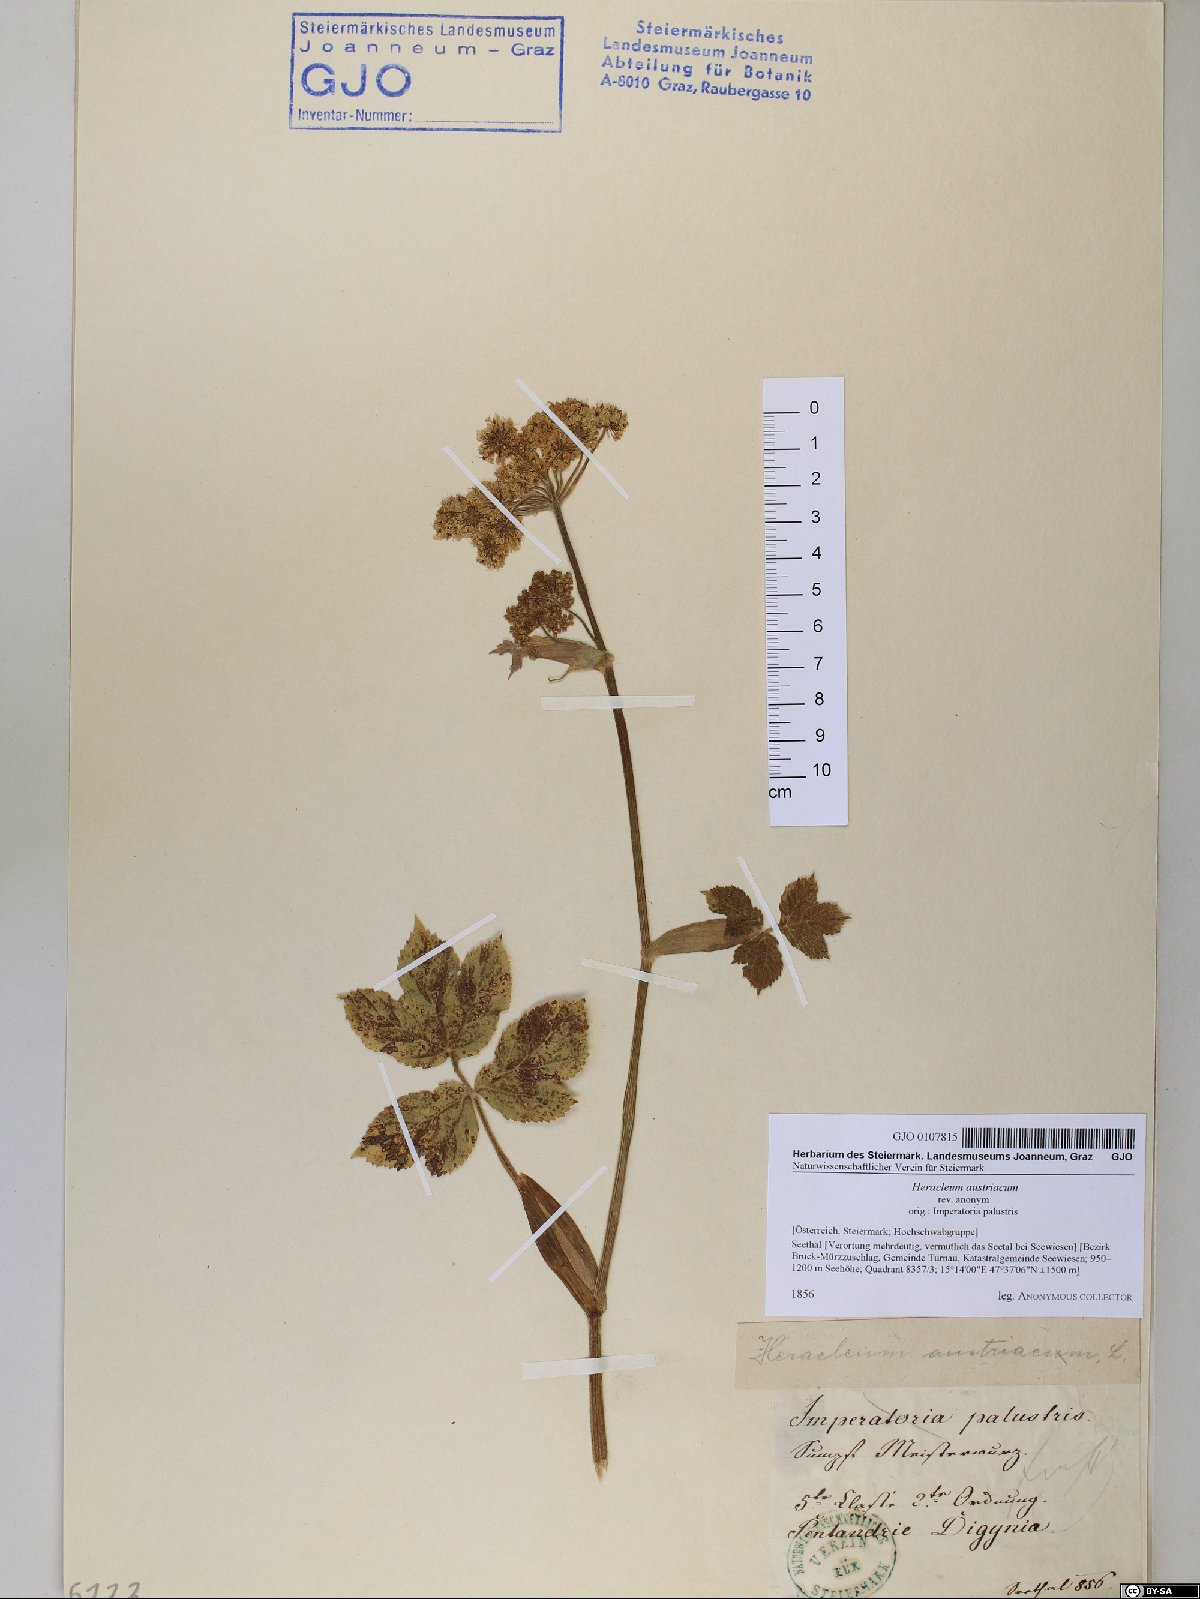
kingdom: Plantae
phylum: Tracheophyta
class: Magnoliopsida
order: Apiales
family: Apiaceae
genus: Heracleum
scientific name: Heracleum austriacum
